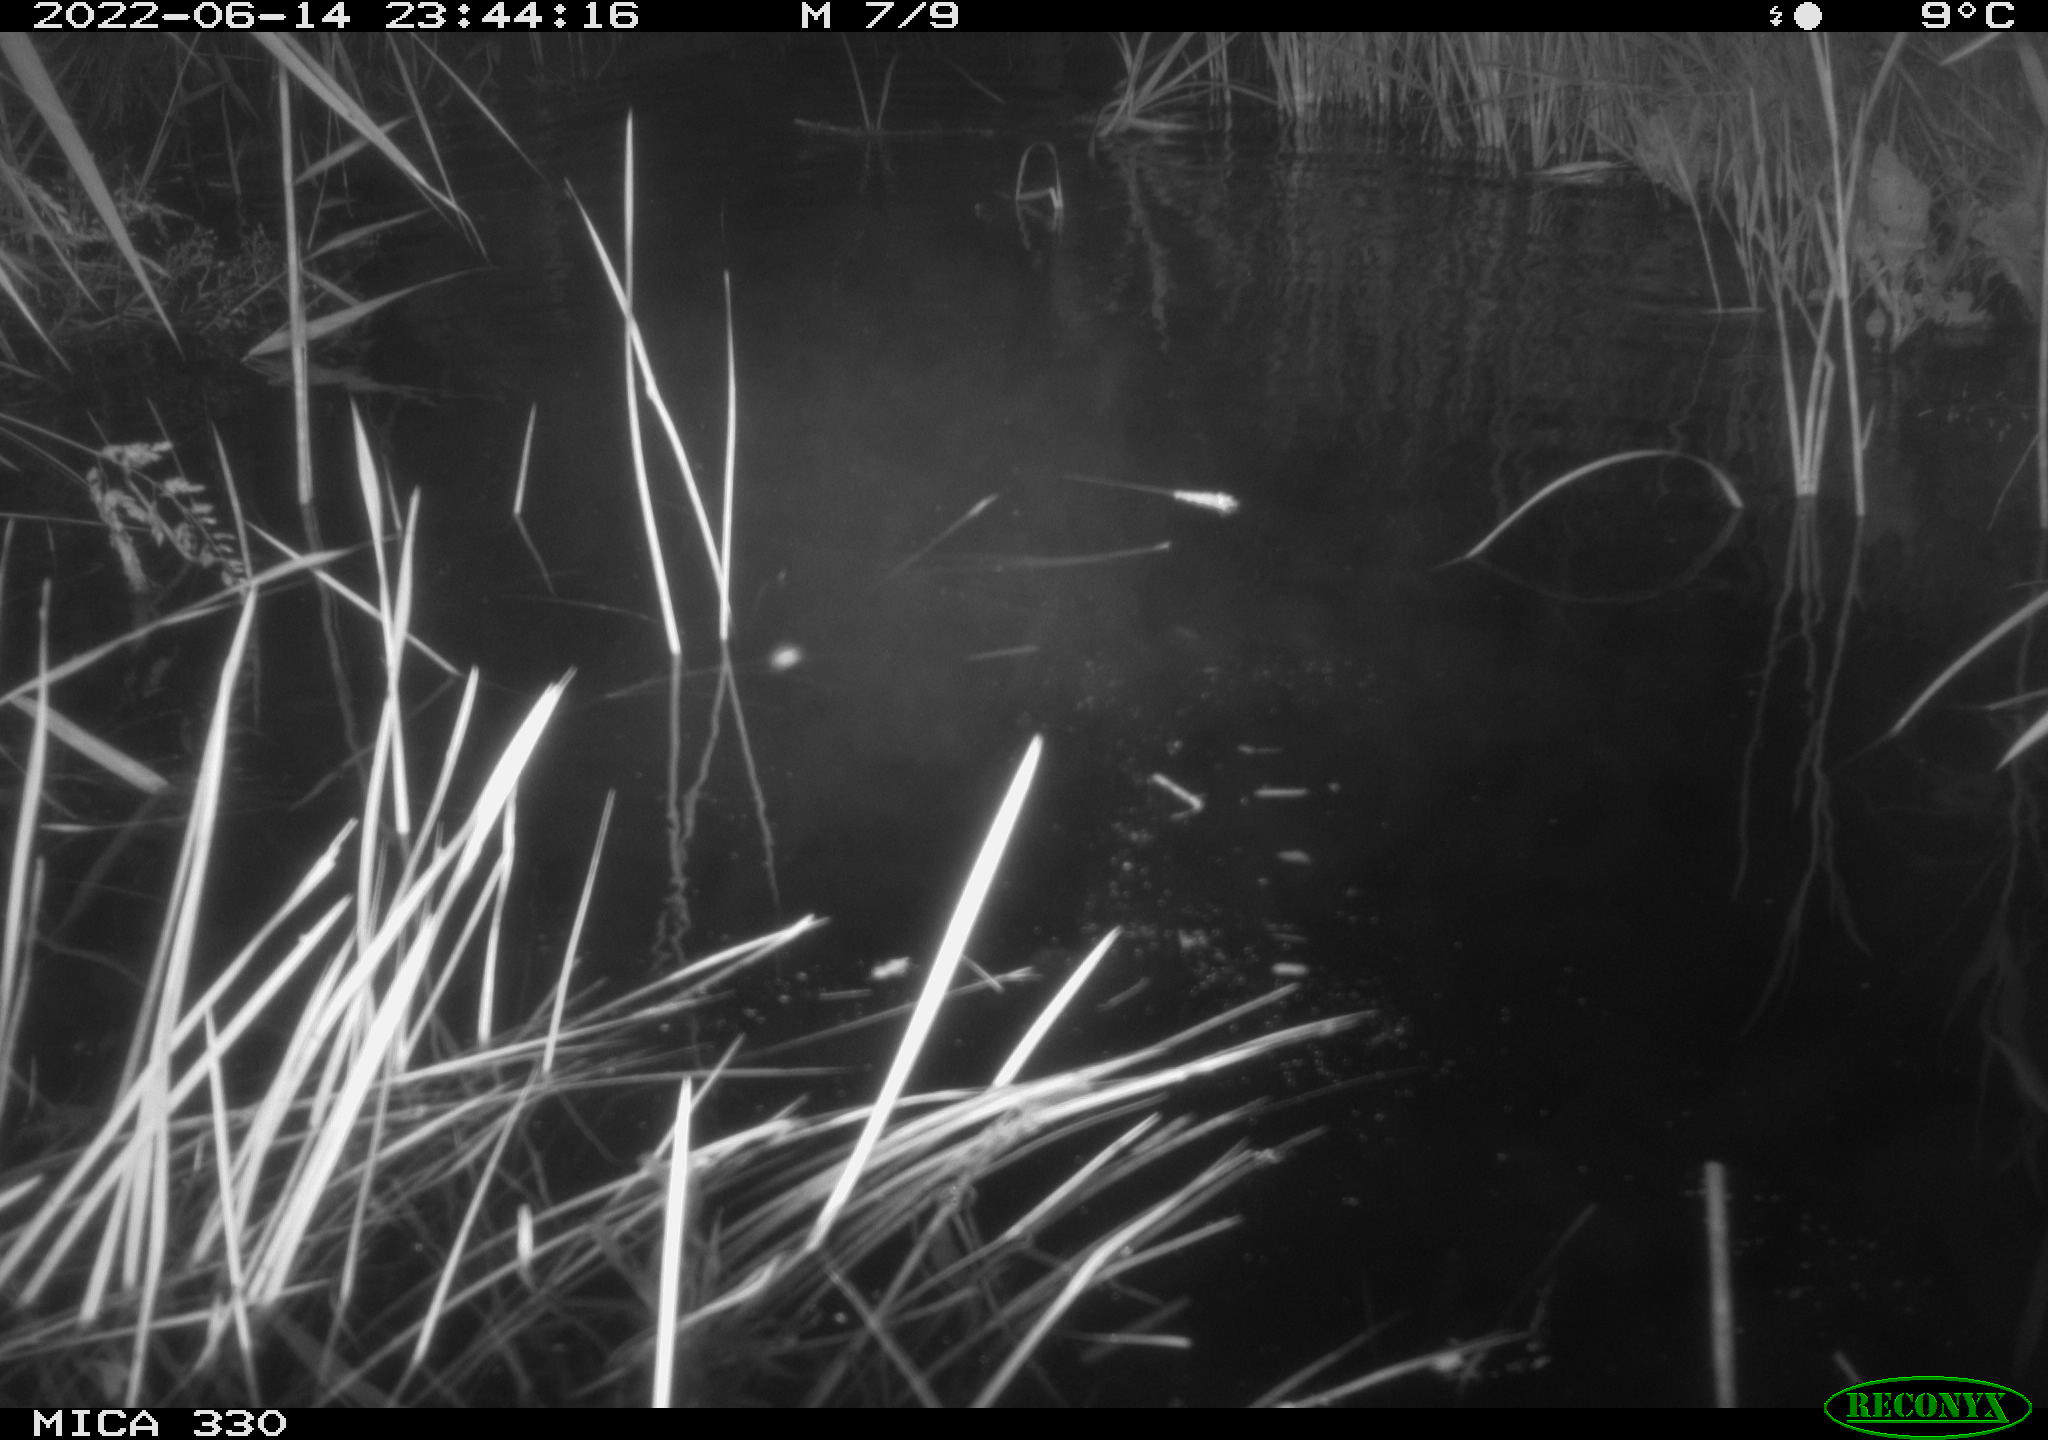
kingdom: Animalia
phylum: Chordata
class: Mammalia
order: Carnivora
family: Mustelidae
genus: Lutra
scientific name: Lutra lutra
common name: European otter
